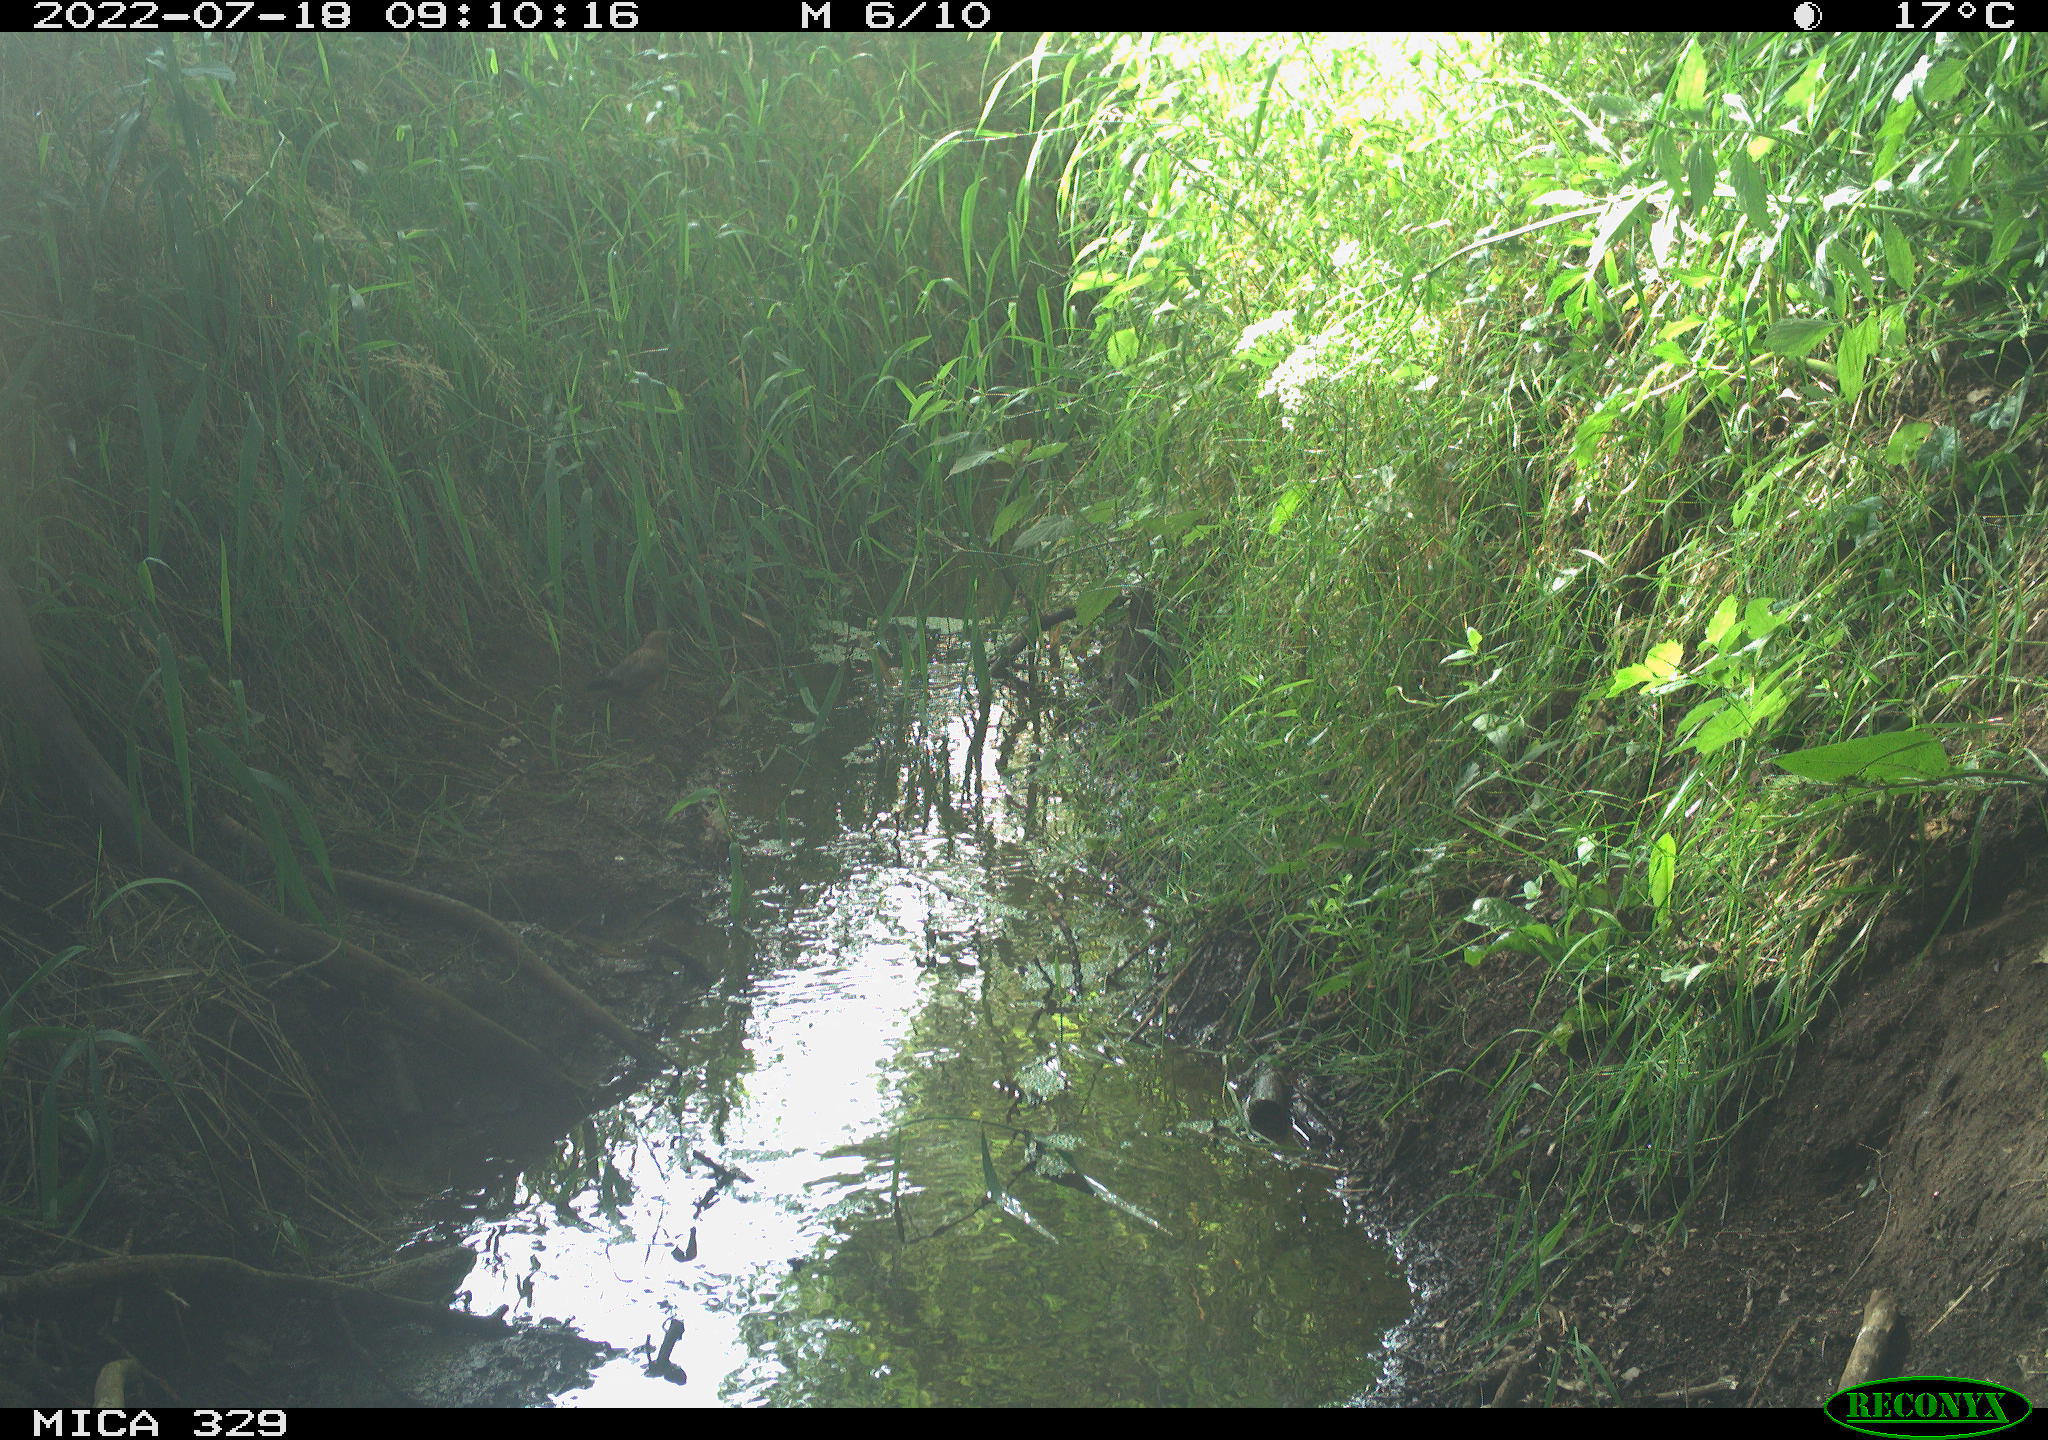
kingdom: Animalia
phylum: Chordata
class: Aves
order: Passeriformes
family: Turdidae
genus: Turdus
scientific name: Turdus merula
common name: Common blackbird
